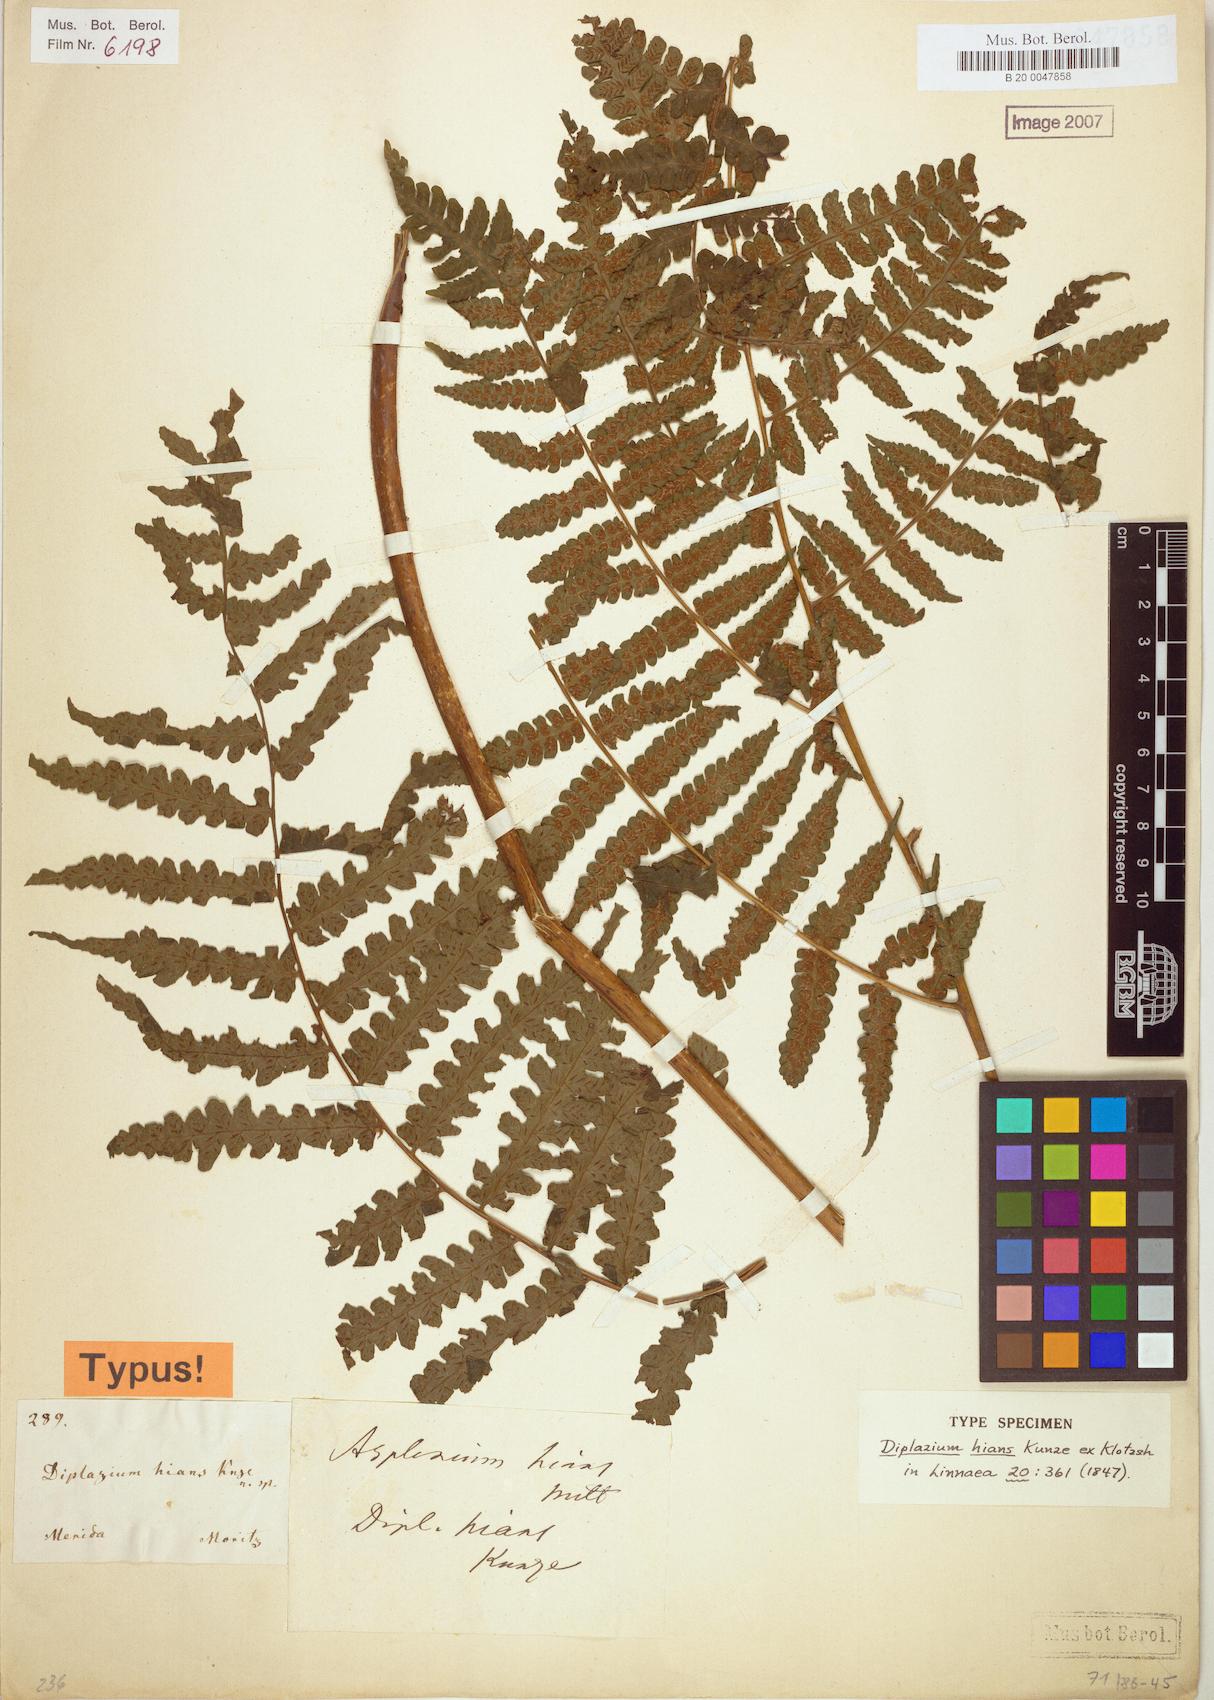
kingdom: Plantae
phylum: Tracheophyta
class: Polypodiopsida
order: Polypodiales
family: Athyriaceae
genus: Diplazium
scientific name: Diplazium hians
